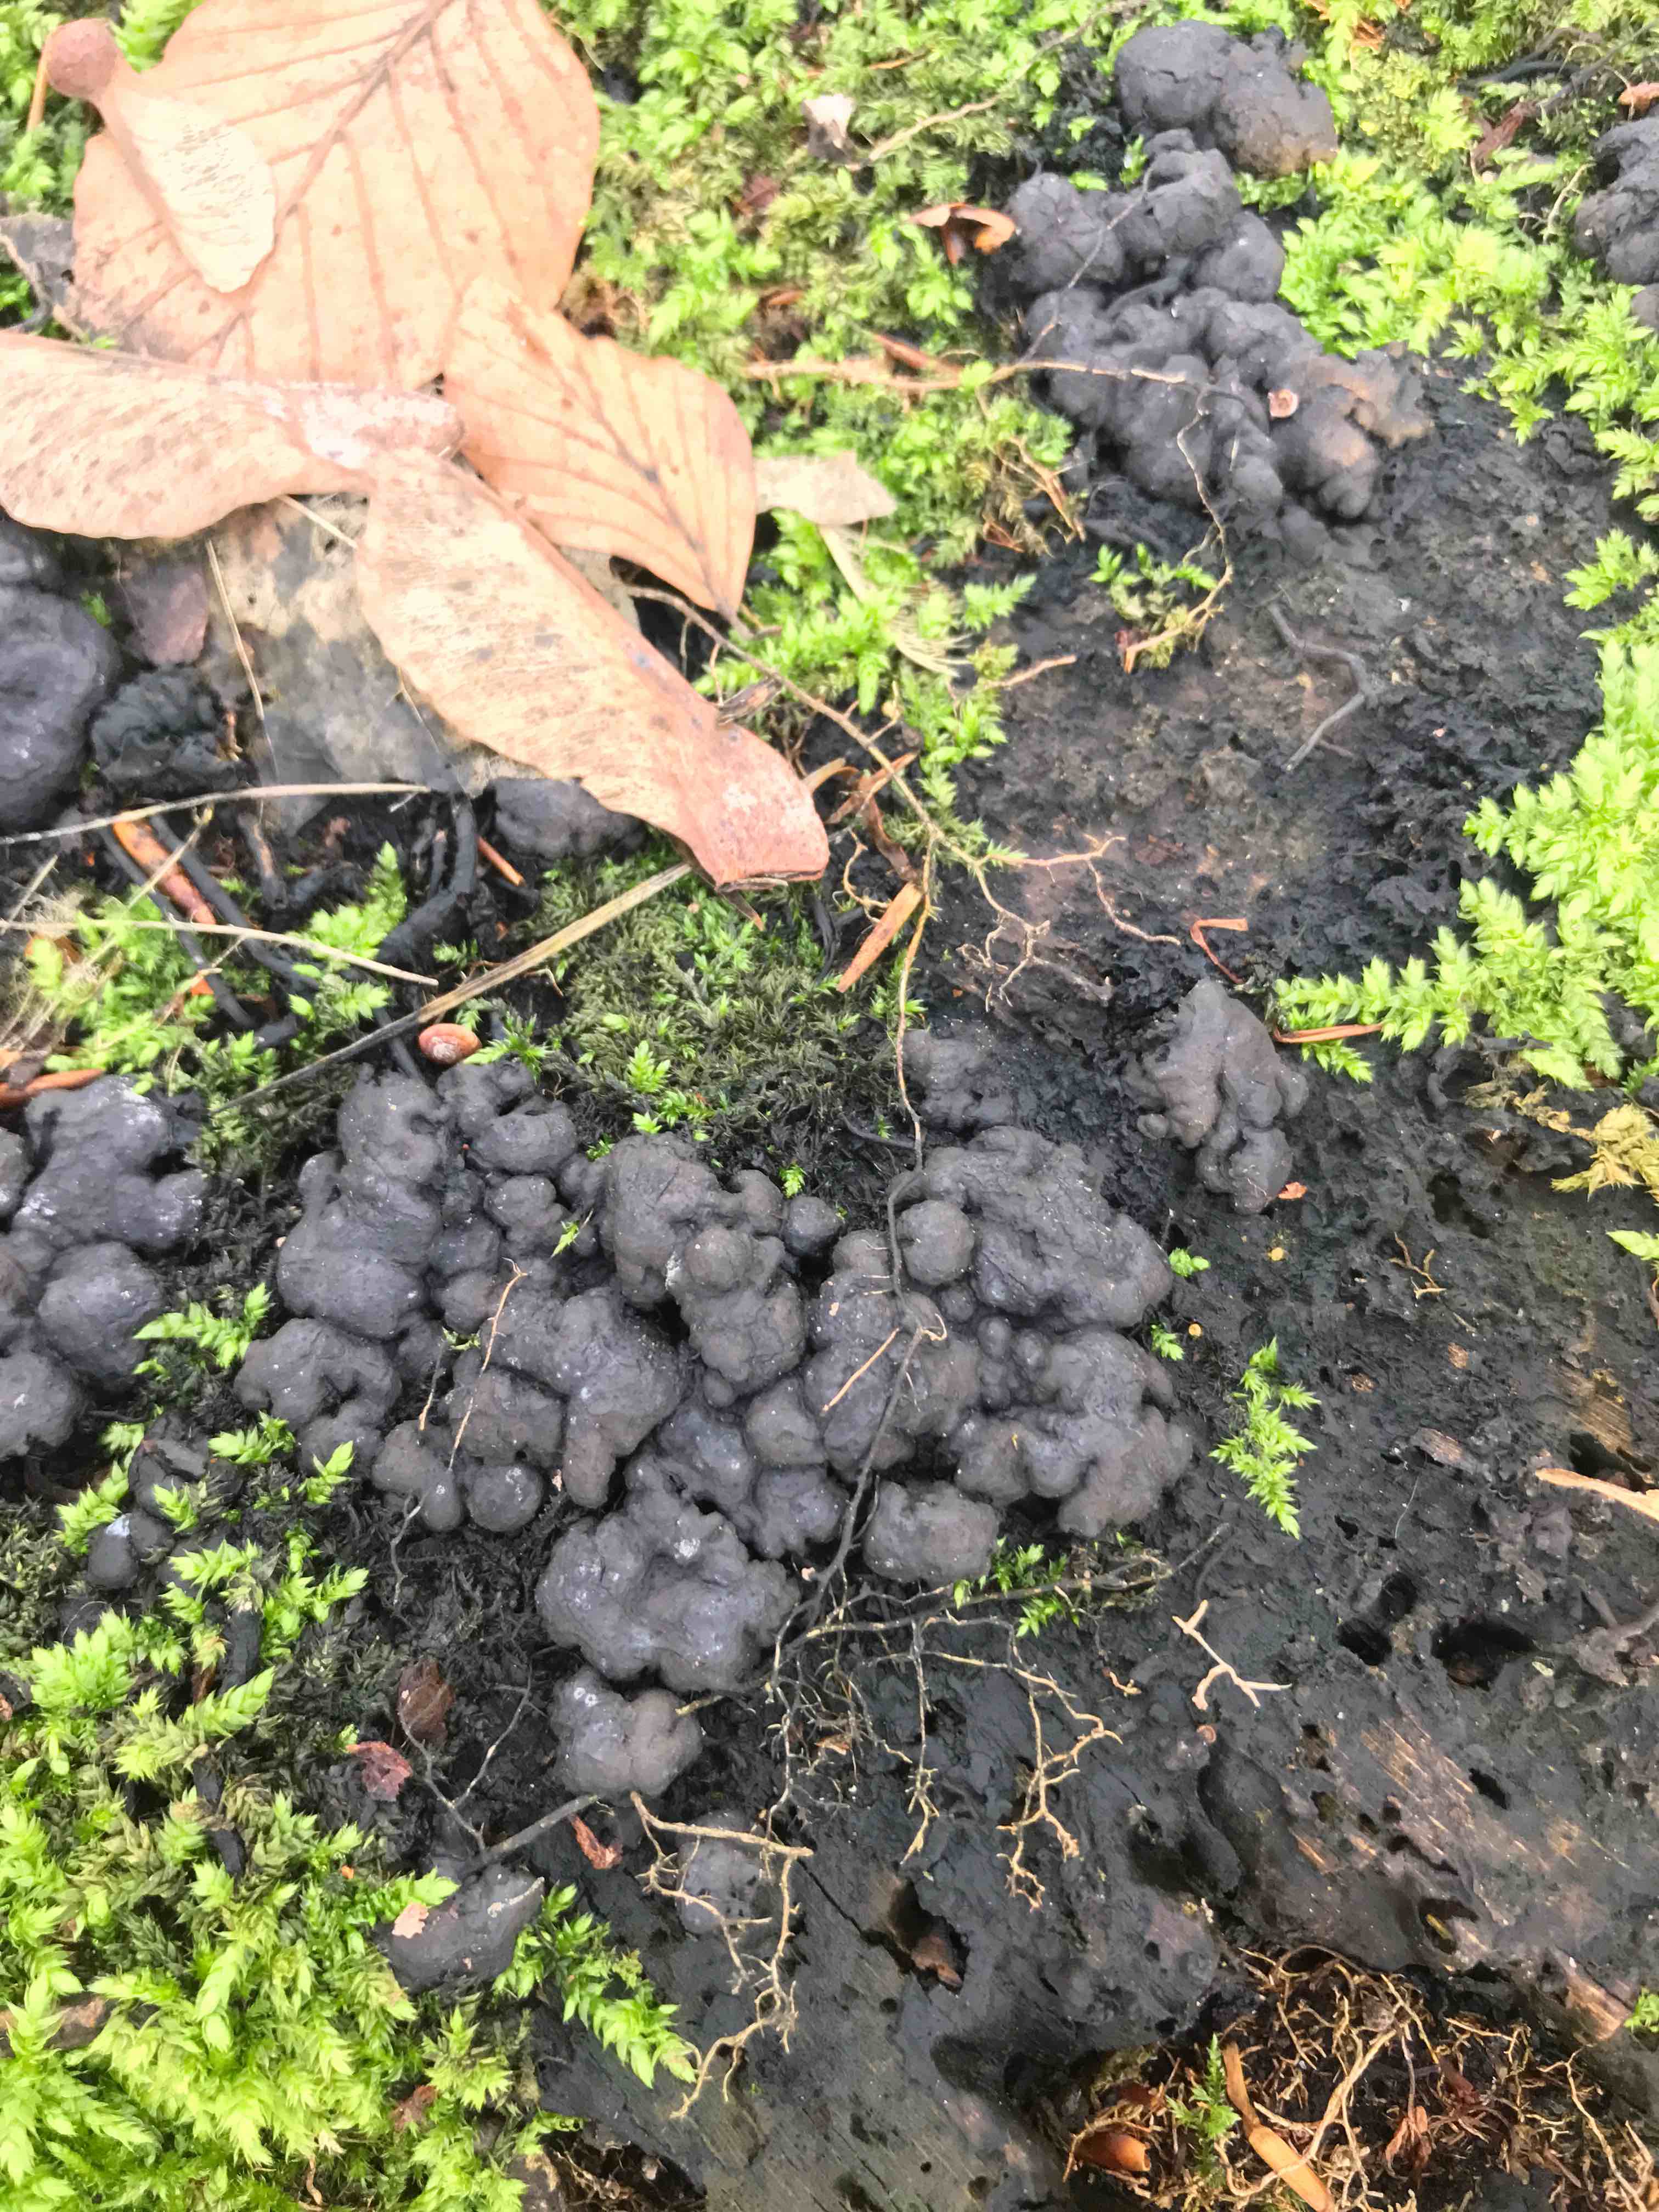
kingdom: Fungi
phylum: Ascomycota
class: Sordariomycetes
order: Xylariales
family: Xylariaceae
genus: Kretzschmaria
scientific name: Kretzschmaria deusta
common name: stor kulsvamp
